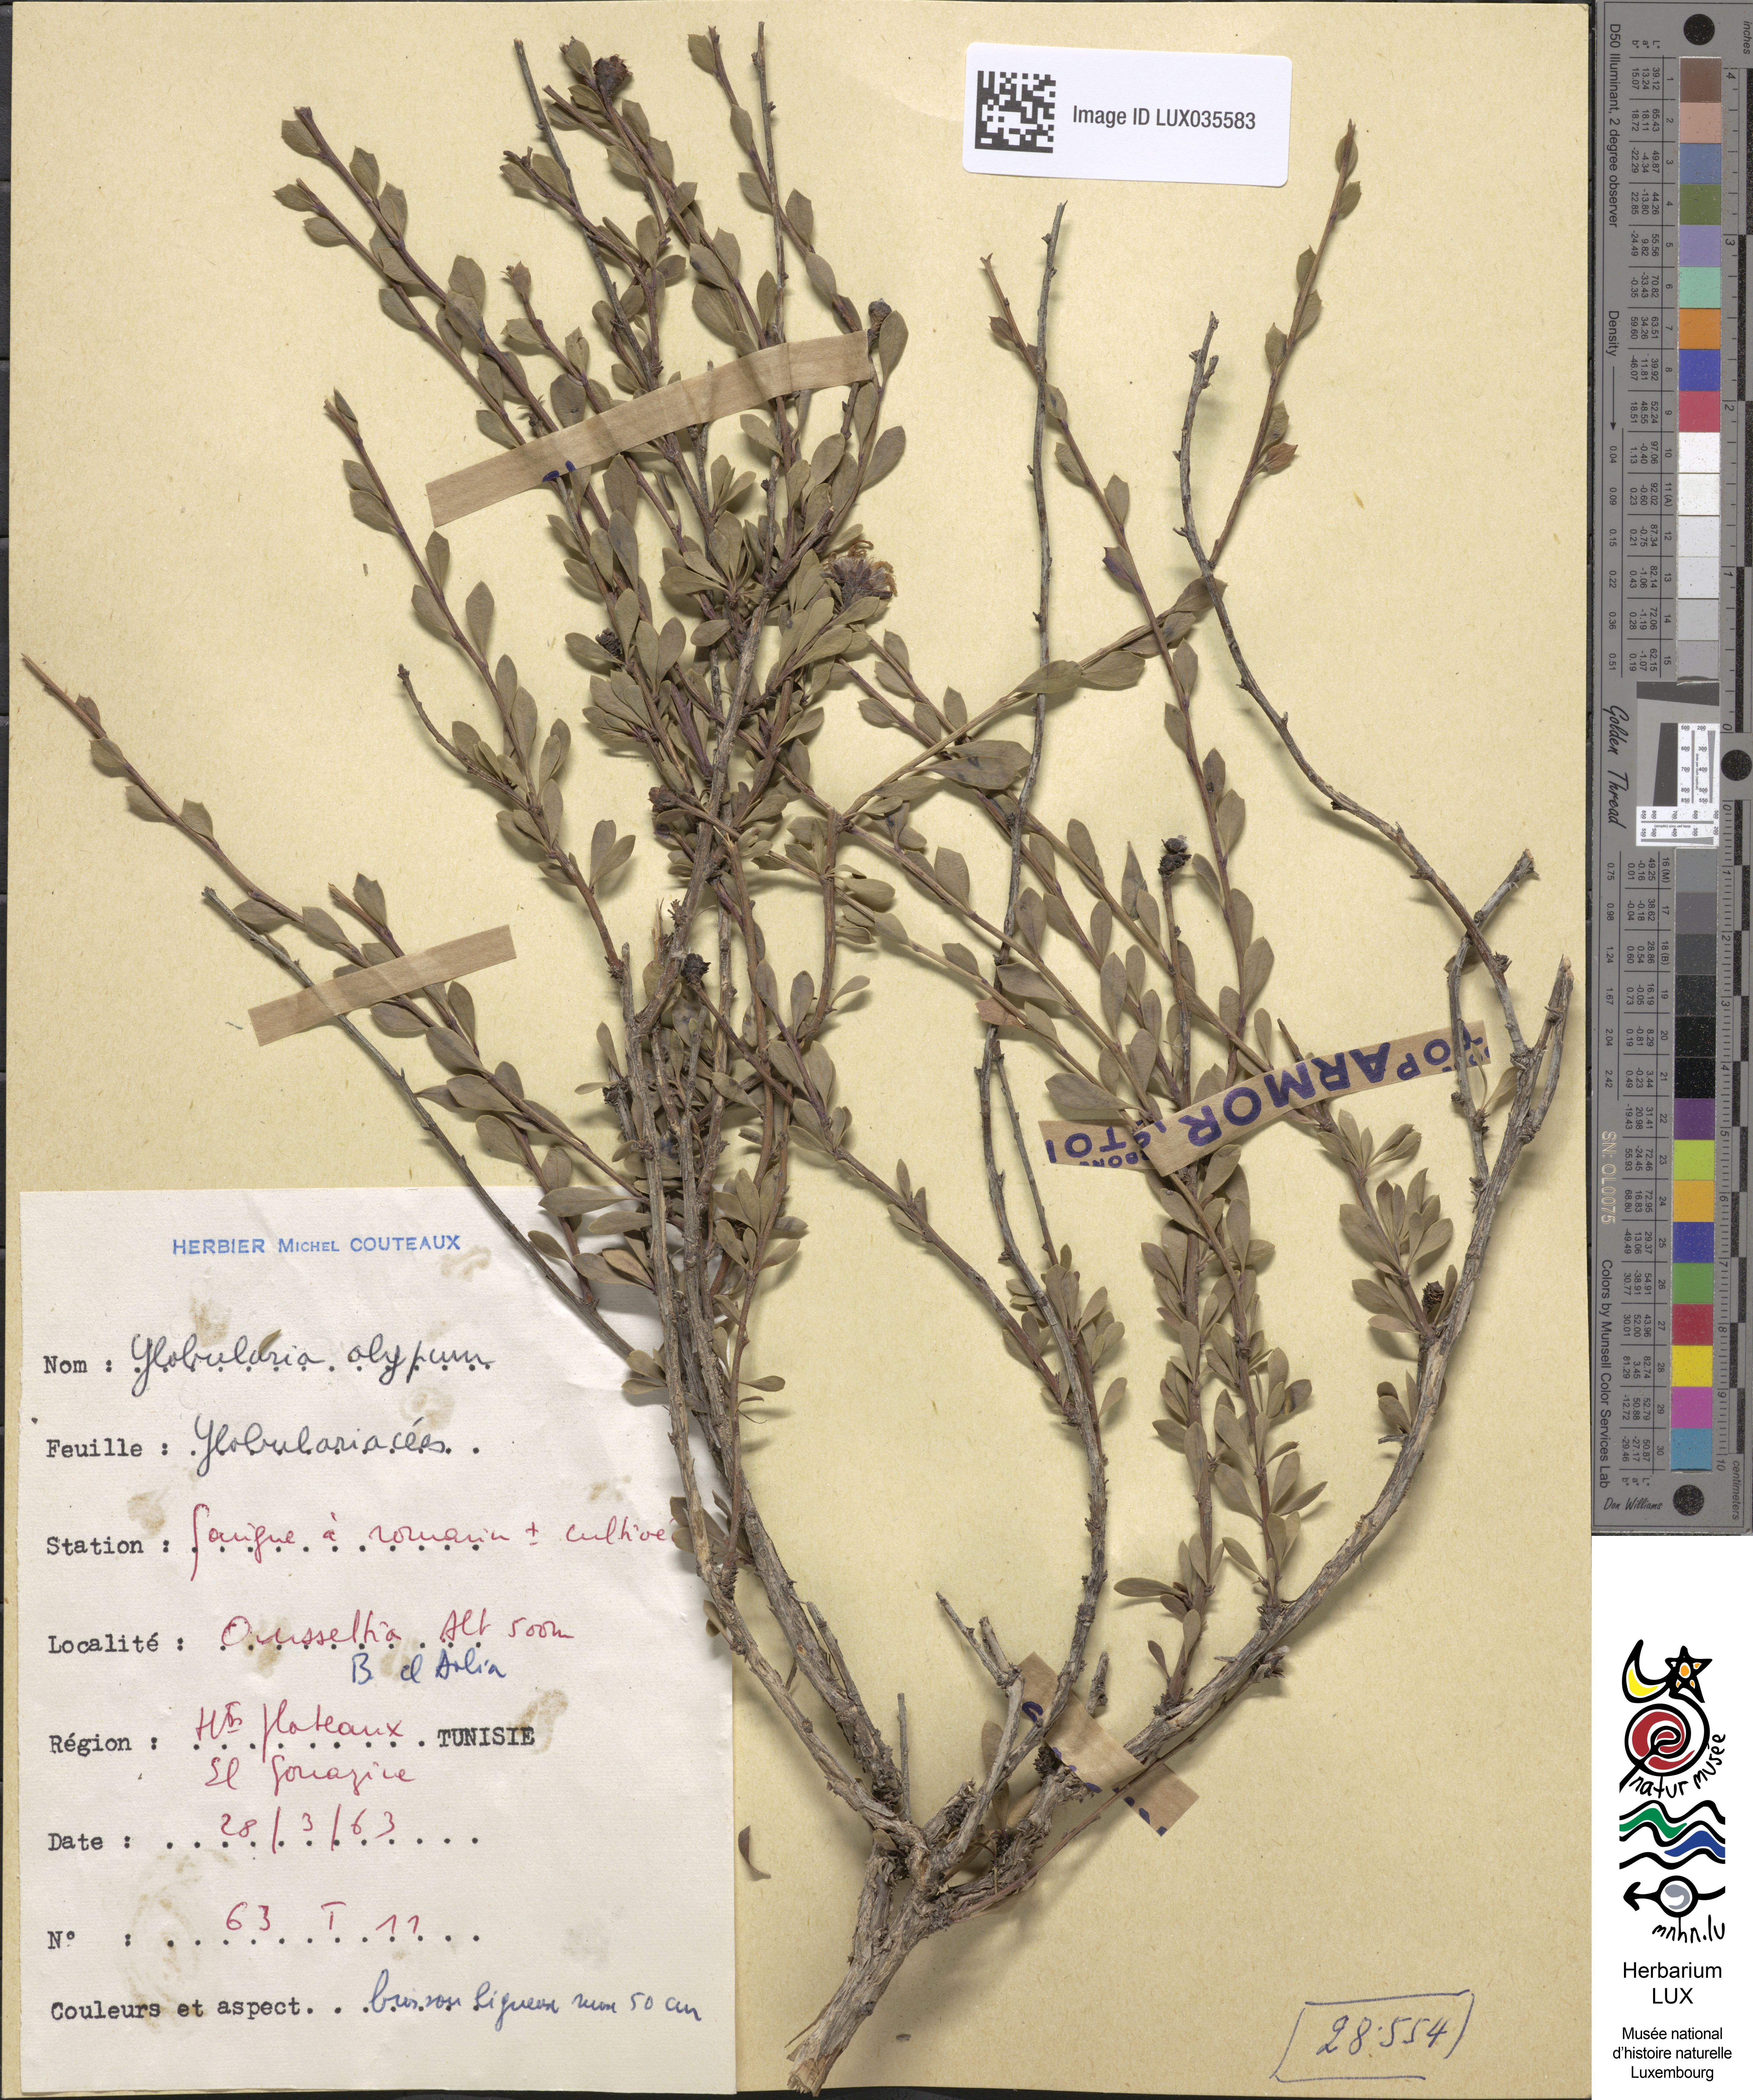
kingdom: Plantae
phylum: Tracheophyta
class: Magnoliopsida
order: Lamiales
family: Plantaginaceae
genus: Globularia
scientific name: Globularia alypum
